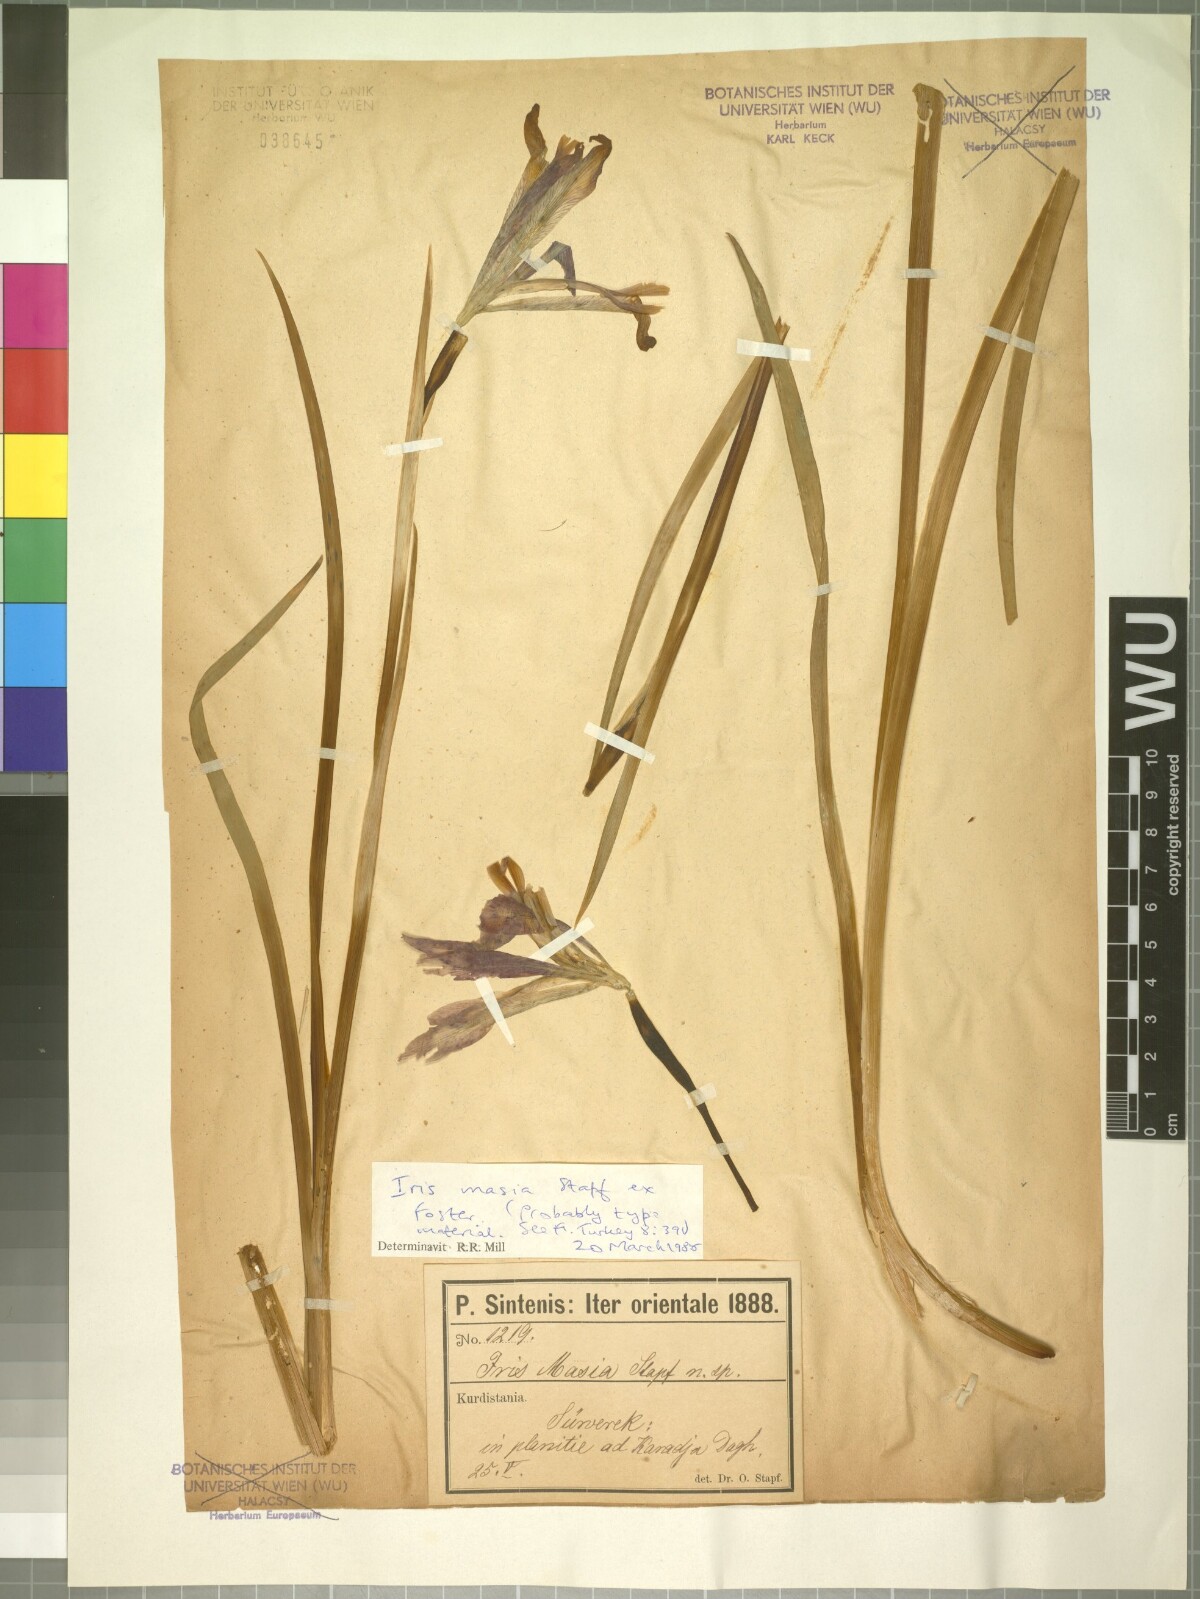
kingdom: Plantae
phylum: Tracheophyta
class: Liliopsida
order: Asparagales
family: Iridaceae
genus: Iris
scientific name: Iris masia
